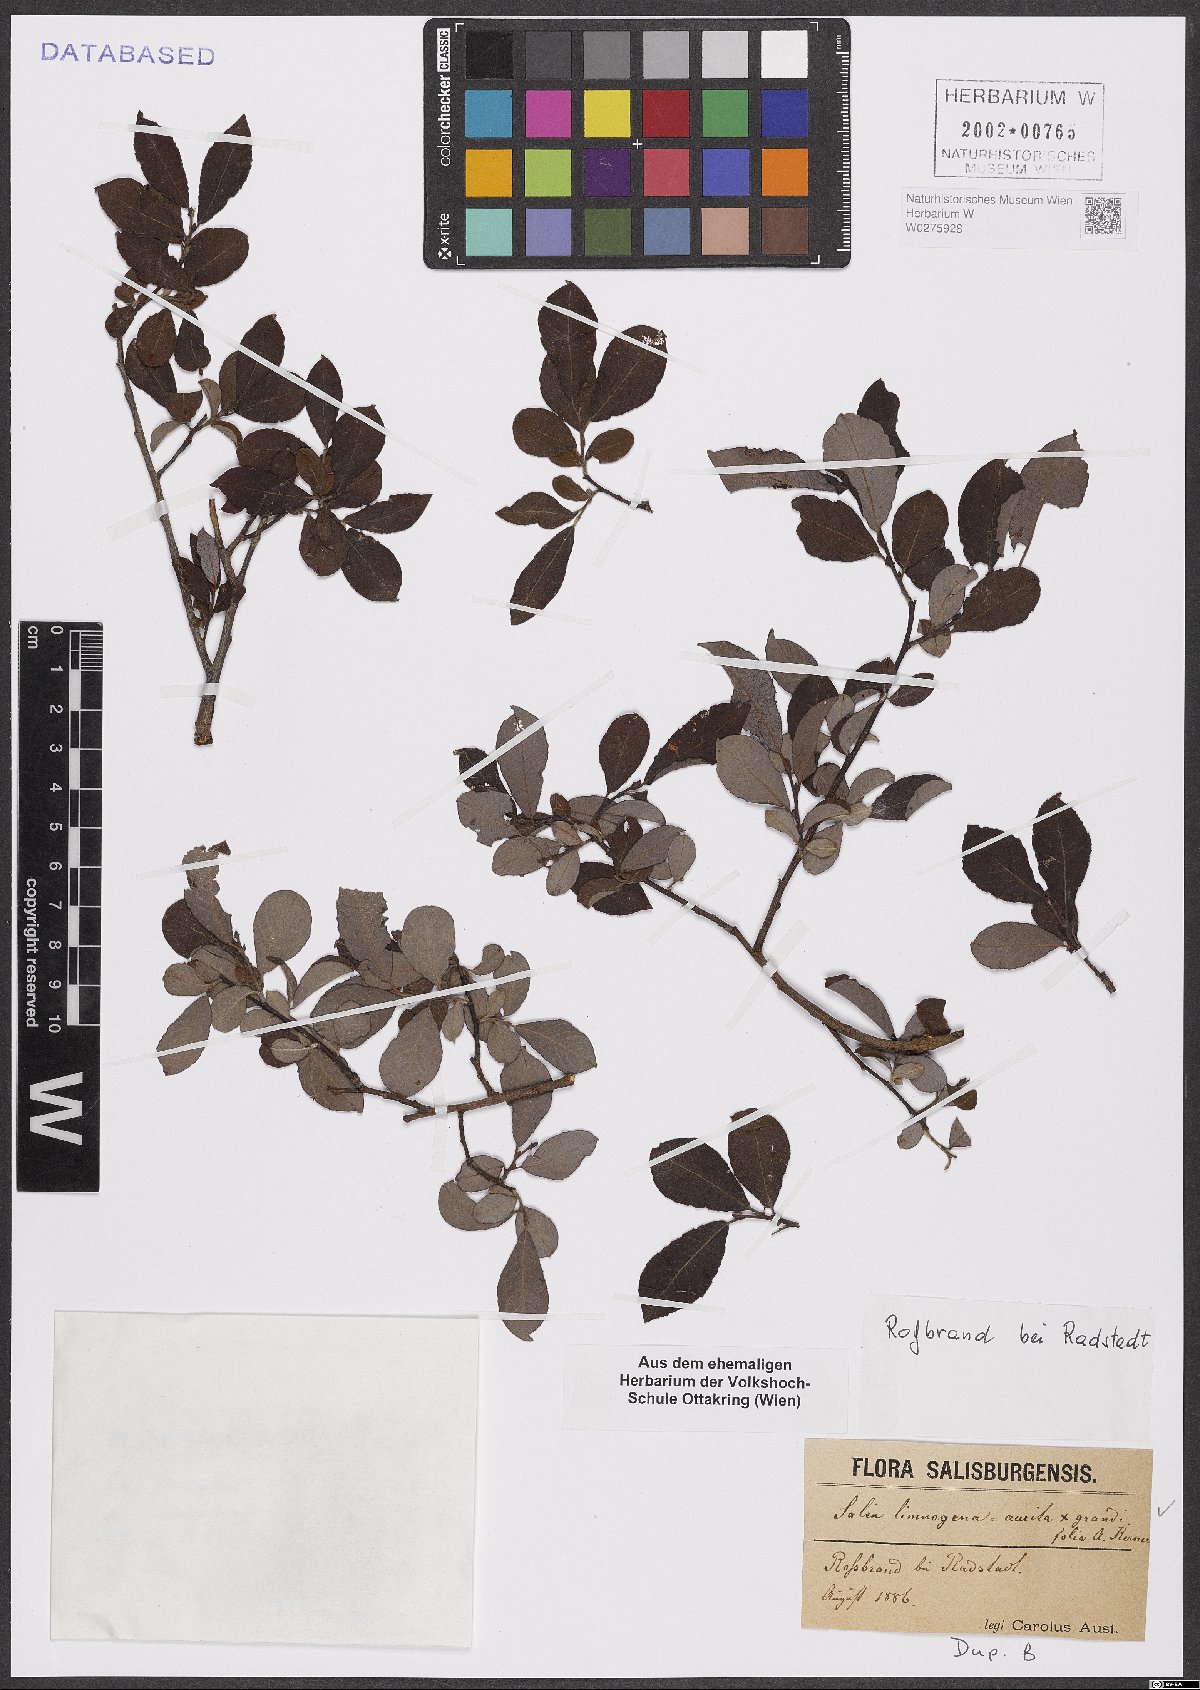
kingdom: Plantae
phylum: Tracheophyta
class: Magnoliopsida
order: Malpighiales
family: Salicaceae
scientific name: Salicaceae
